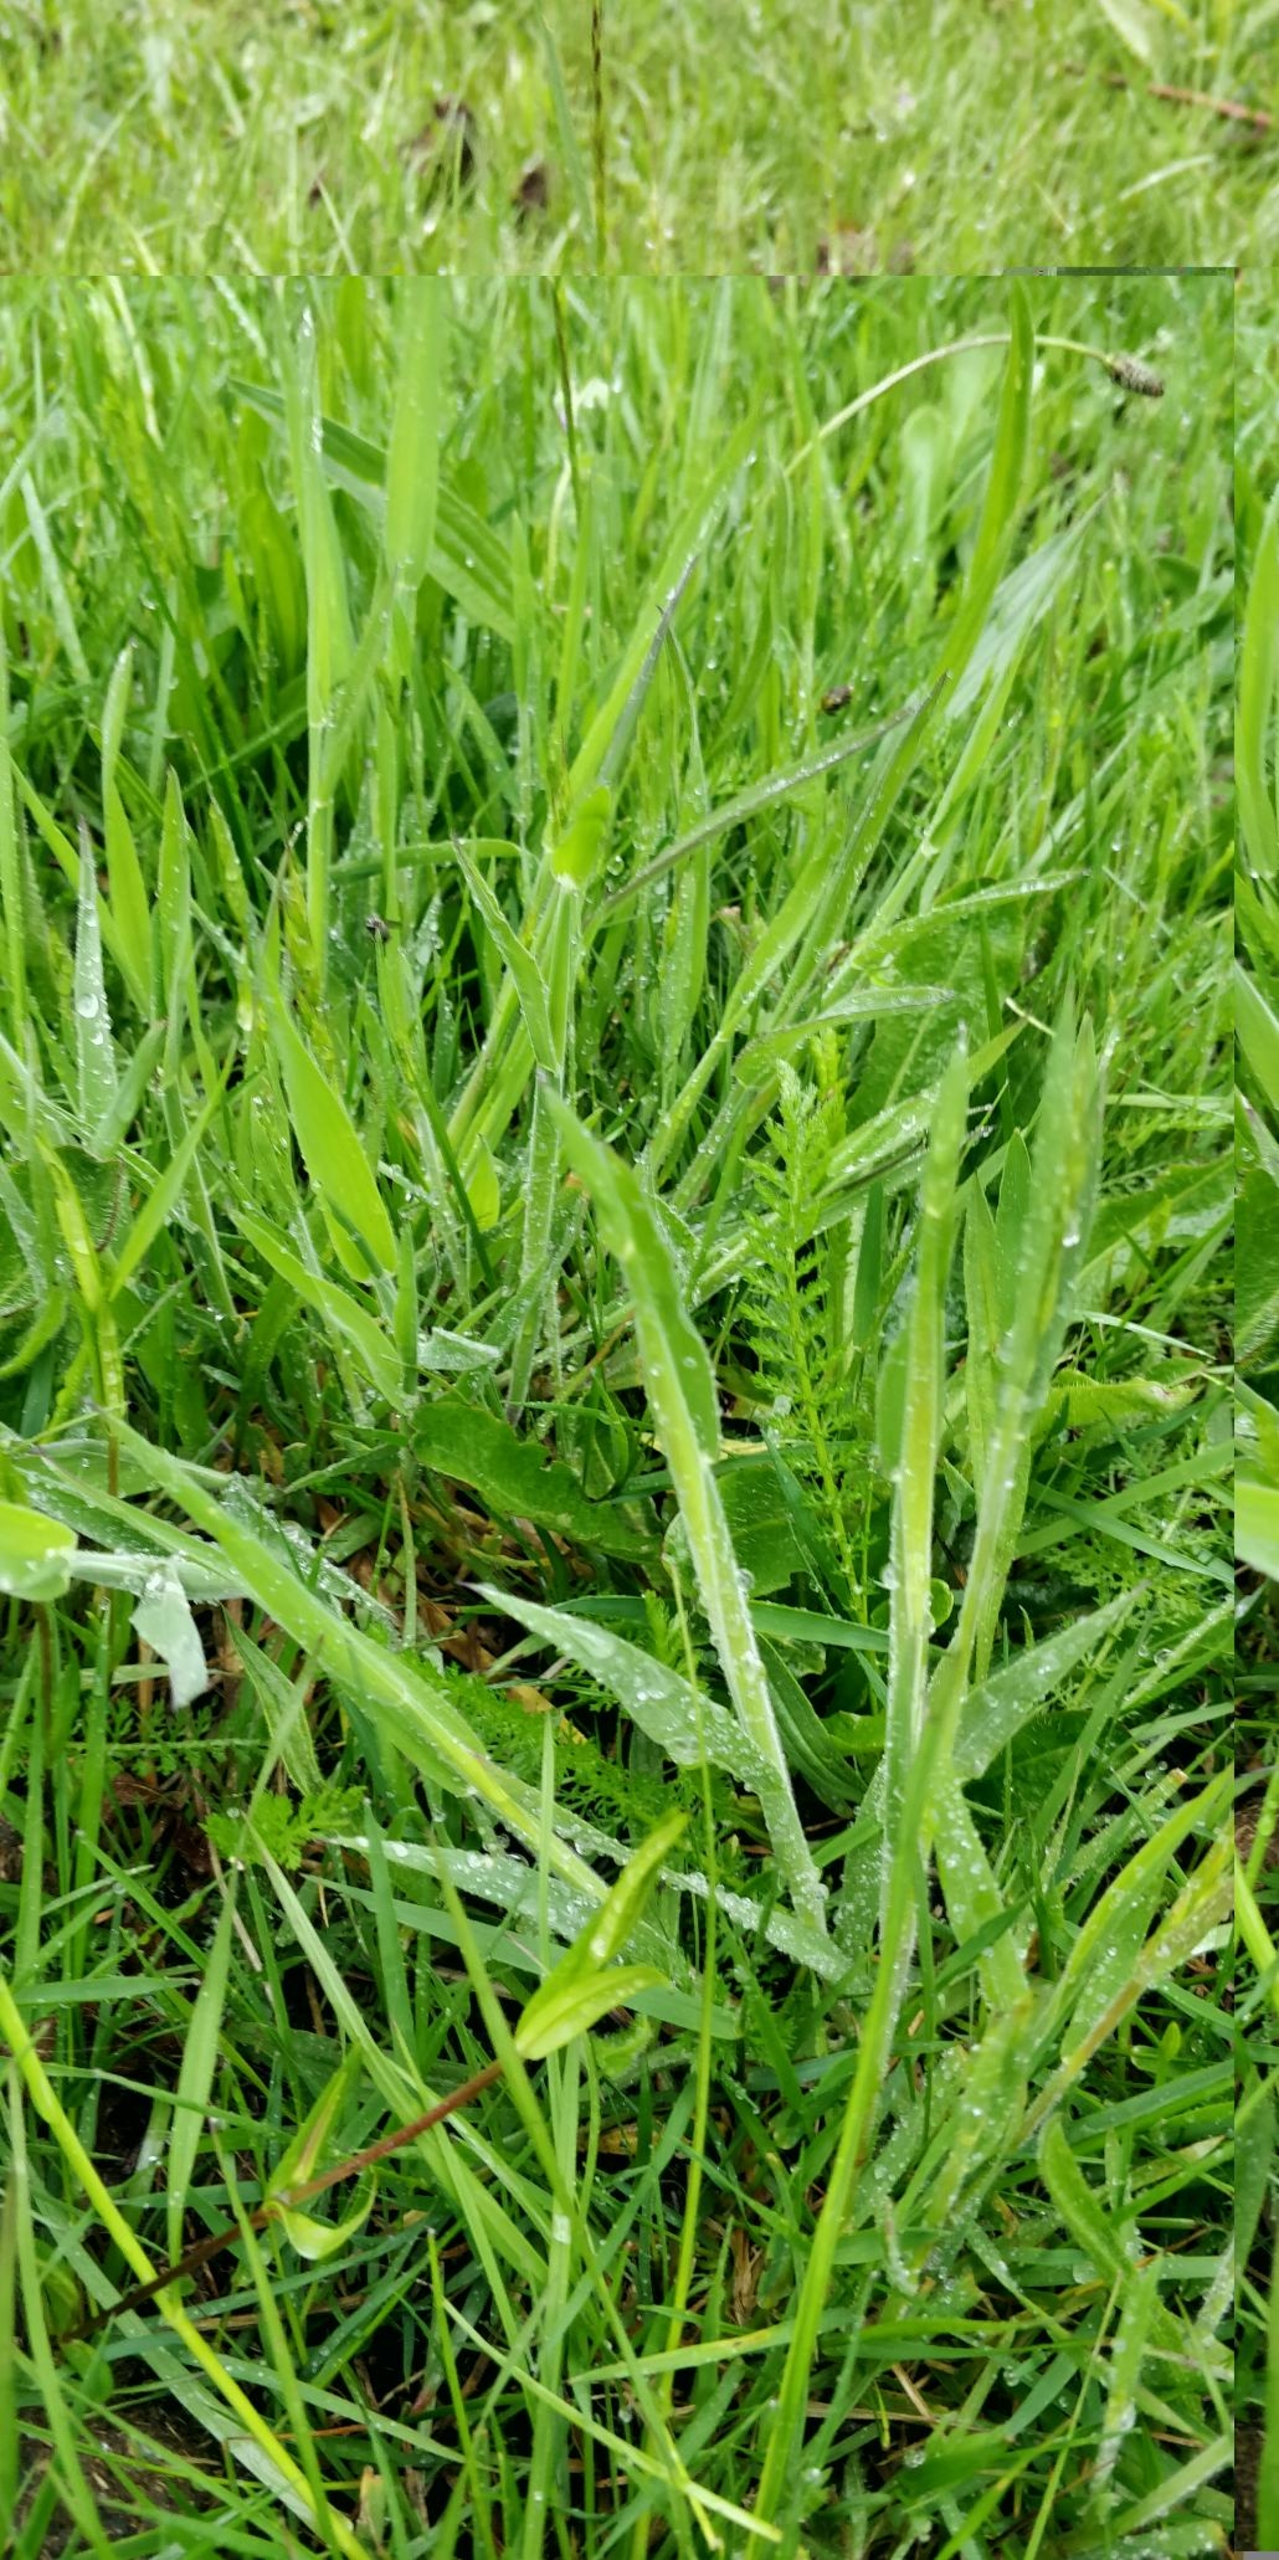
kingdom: Plantae
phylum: Tracheophyta
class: Liliopsida
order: Poales
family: Poaceae
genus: Holcus
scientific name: Holcus lanatus
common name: Fløjlsgræs
